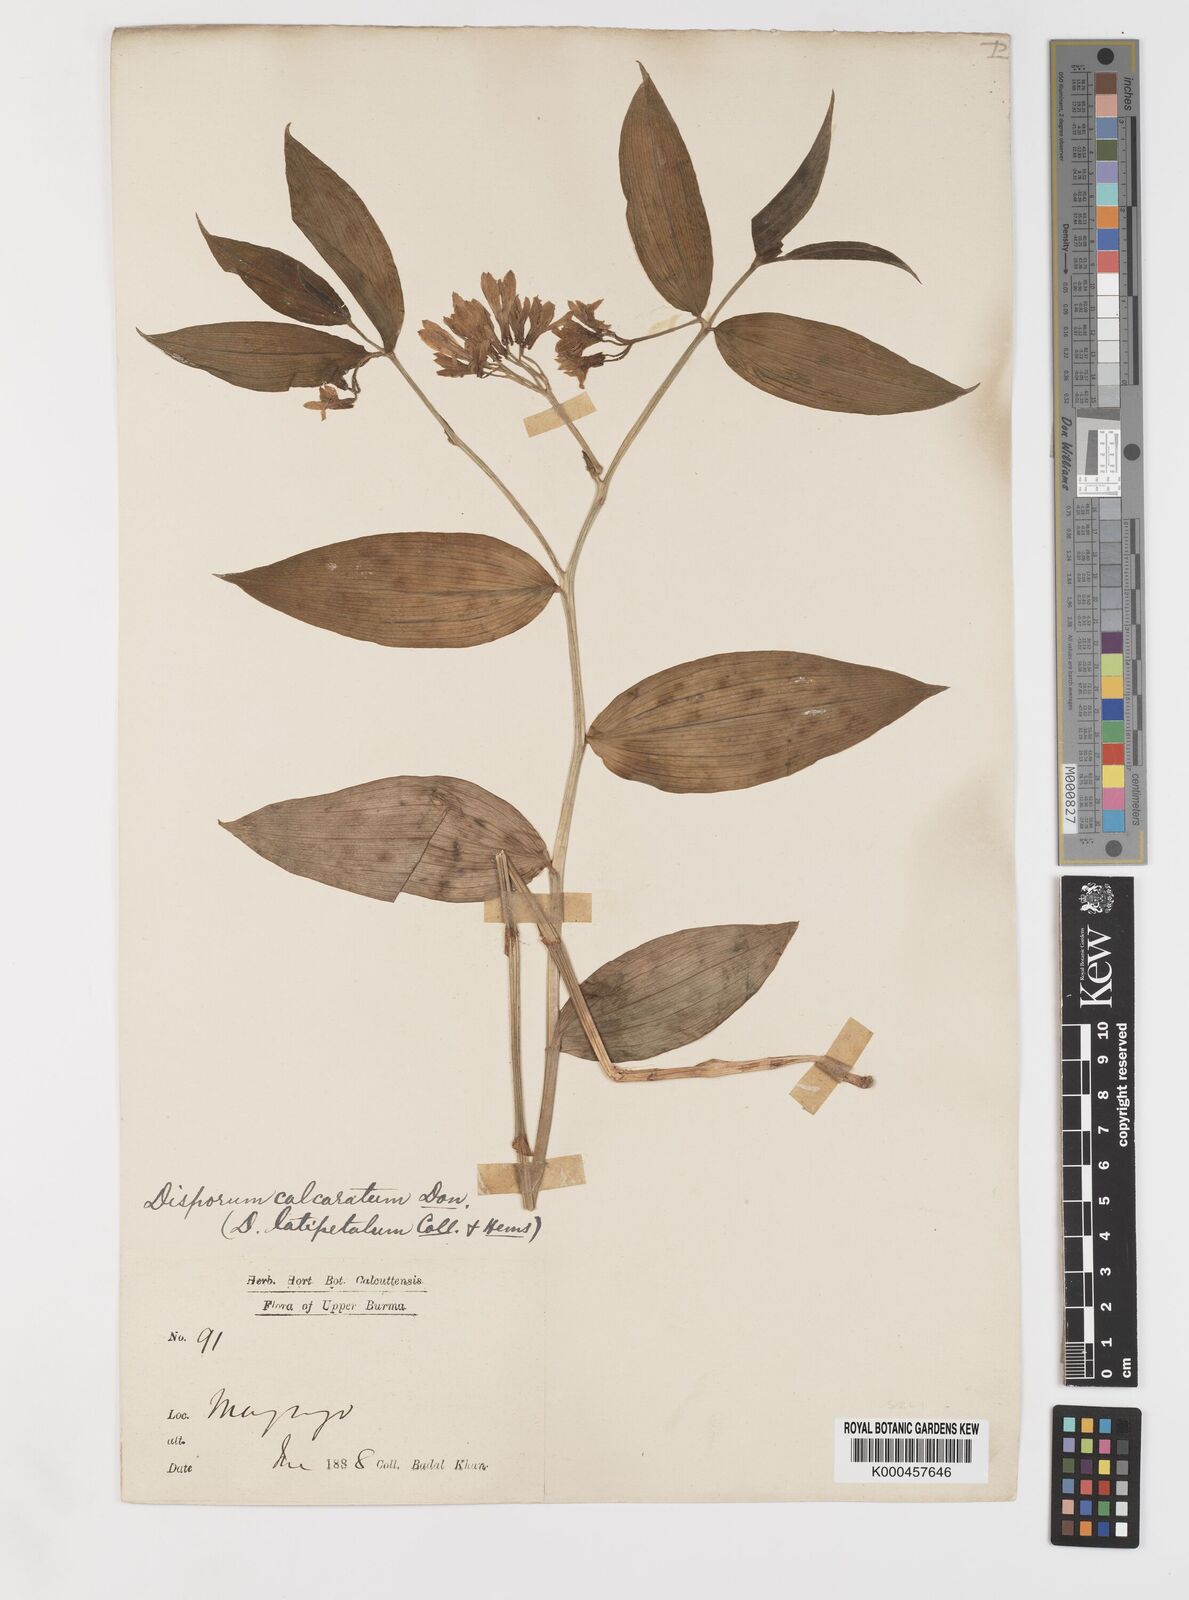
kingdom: Plantae
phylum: Tracheophyta
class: Liliopsida
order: Liliales
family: Colchicaceae
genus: Disporum
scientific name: Disporum calcaratum
